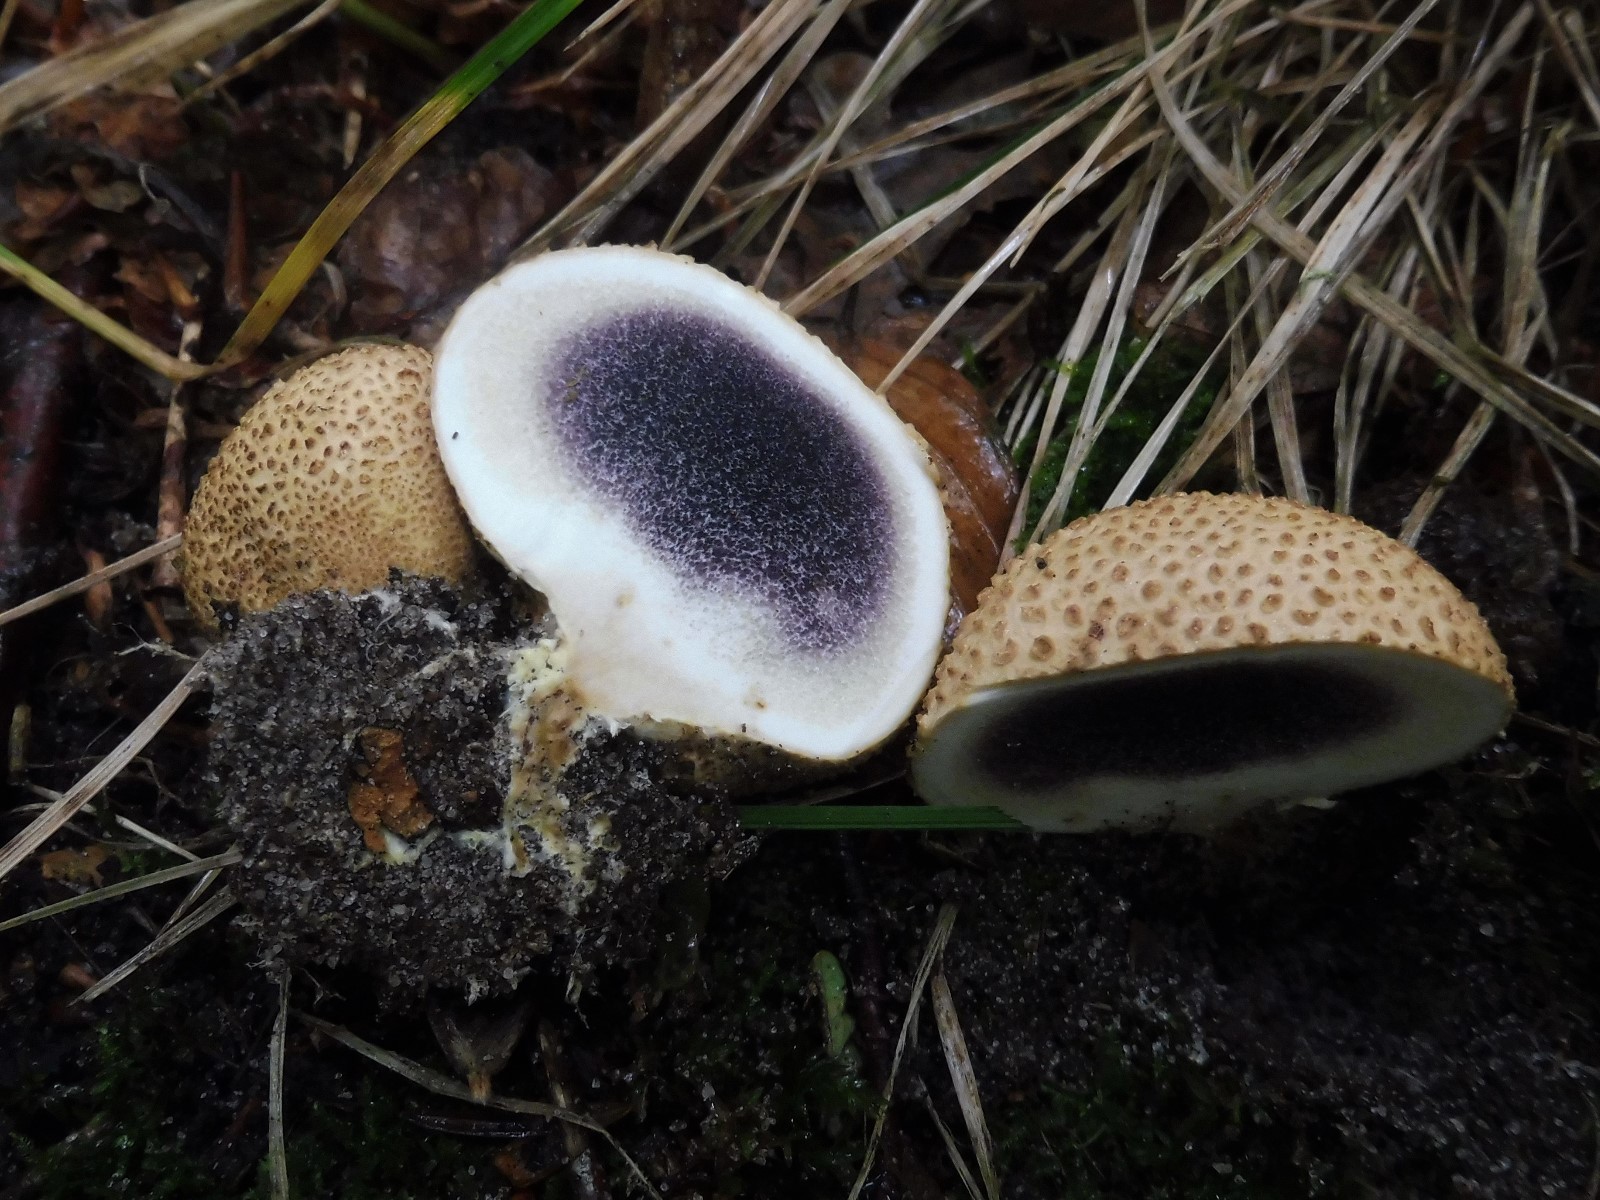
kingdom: Fungi
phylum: Basidiomycota
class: Agaricomycetes
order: Boletales
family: Sclerodermataceae
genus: Scleroderma
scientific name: Scleroderma citrinum
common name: almindelig bruskbold
